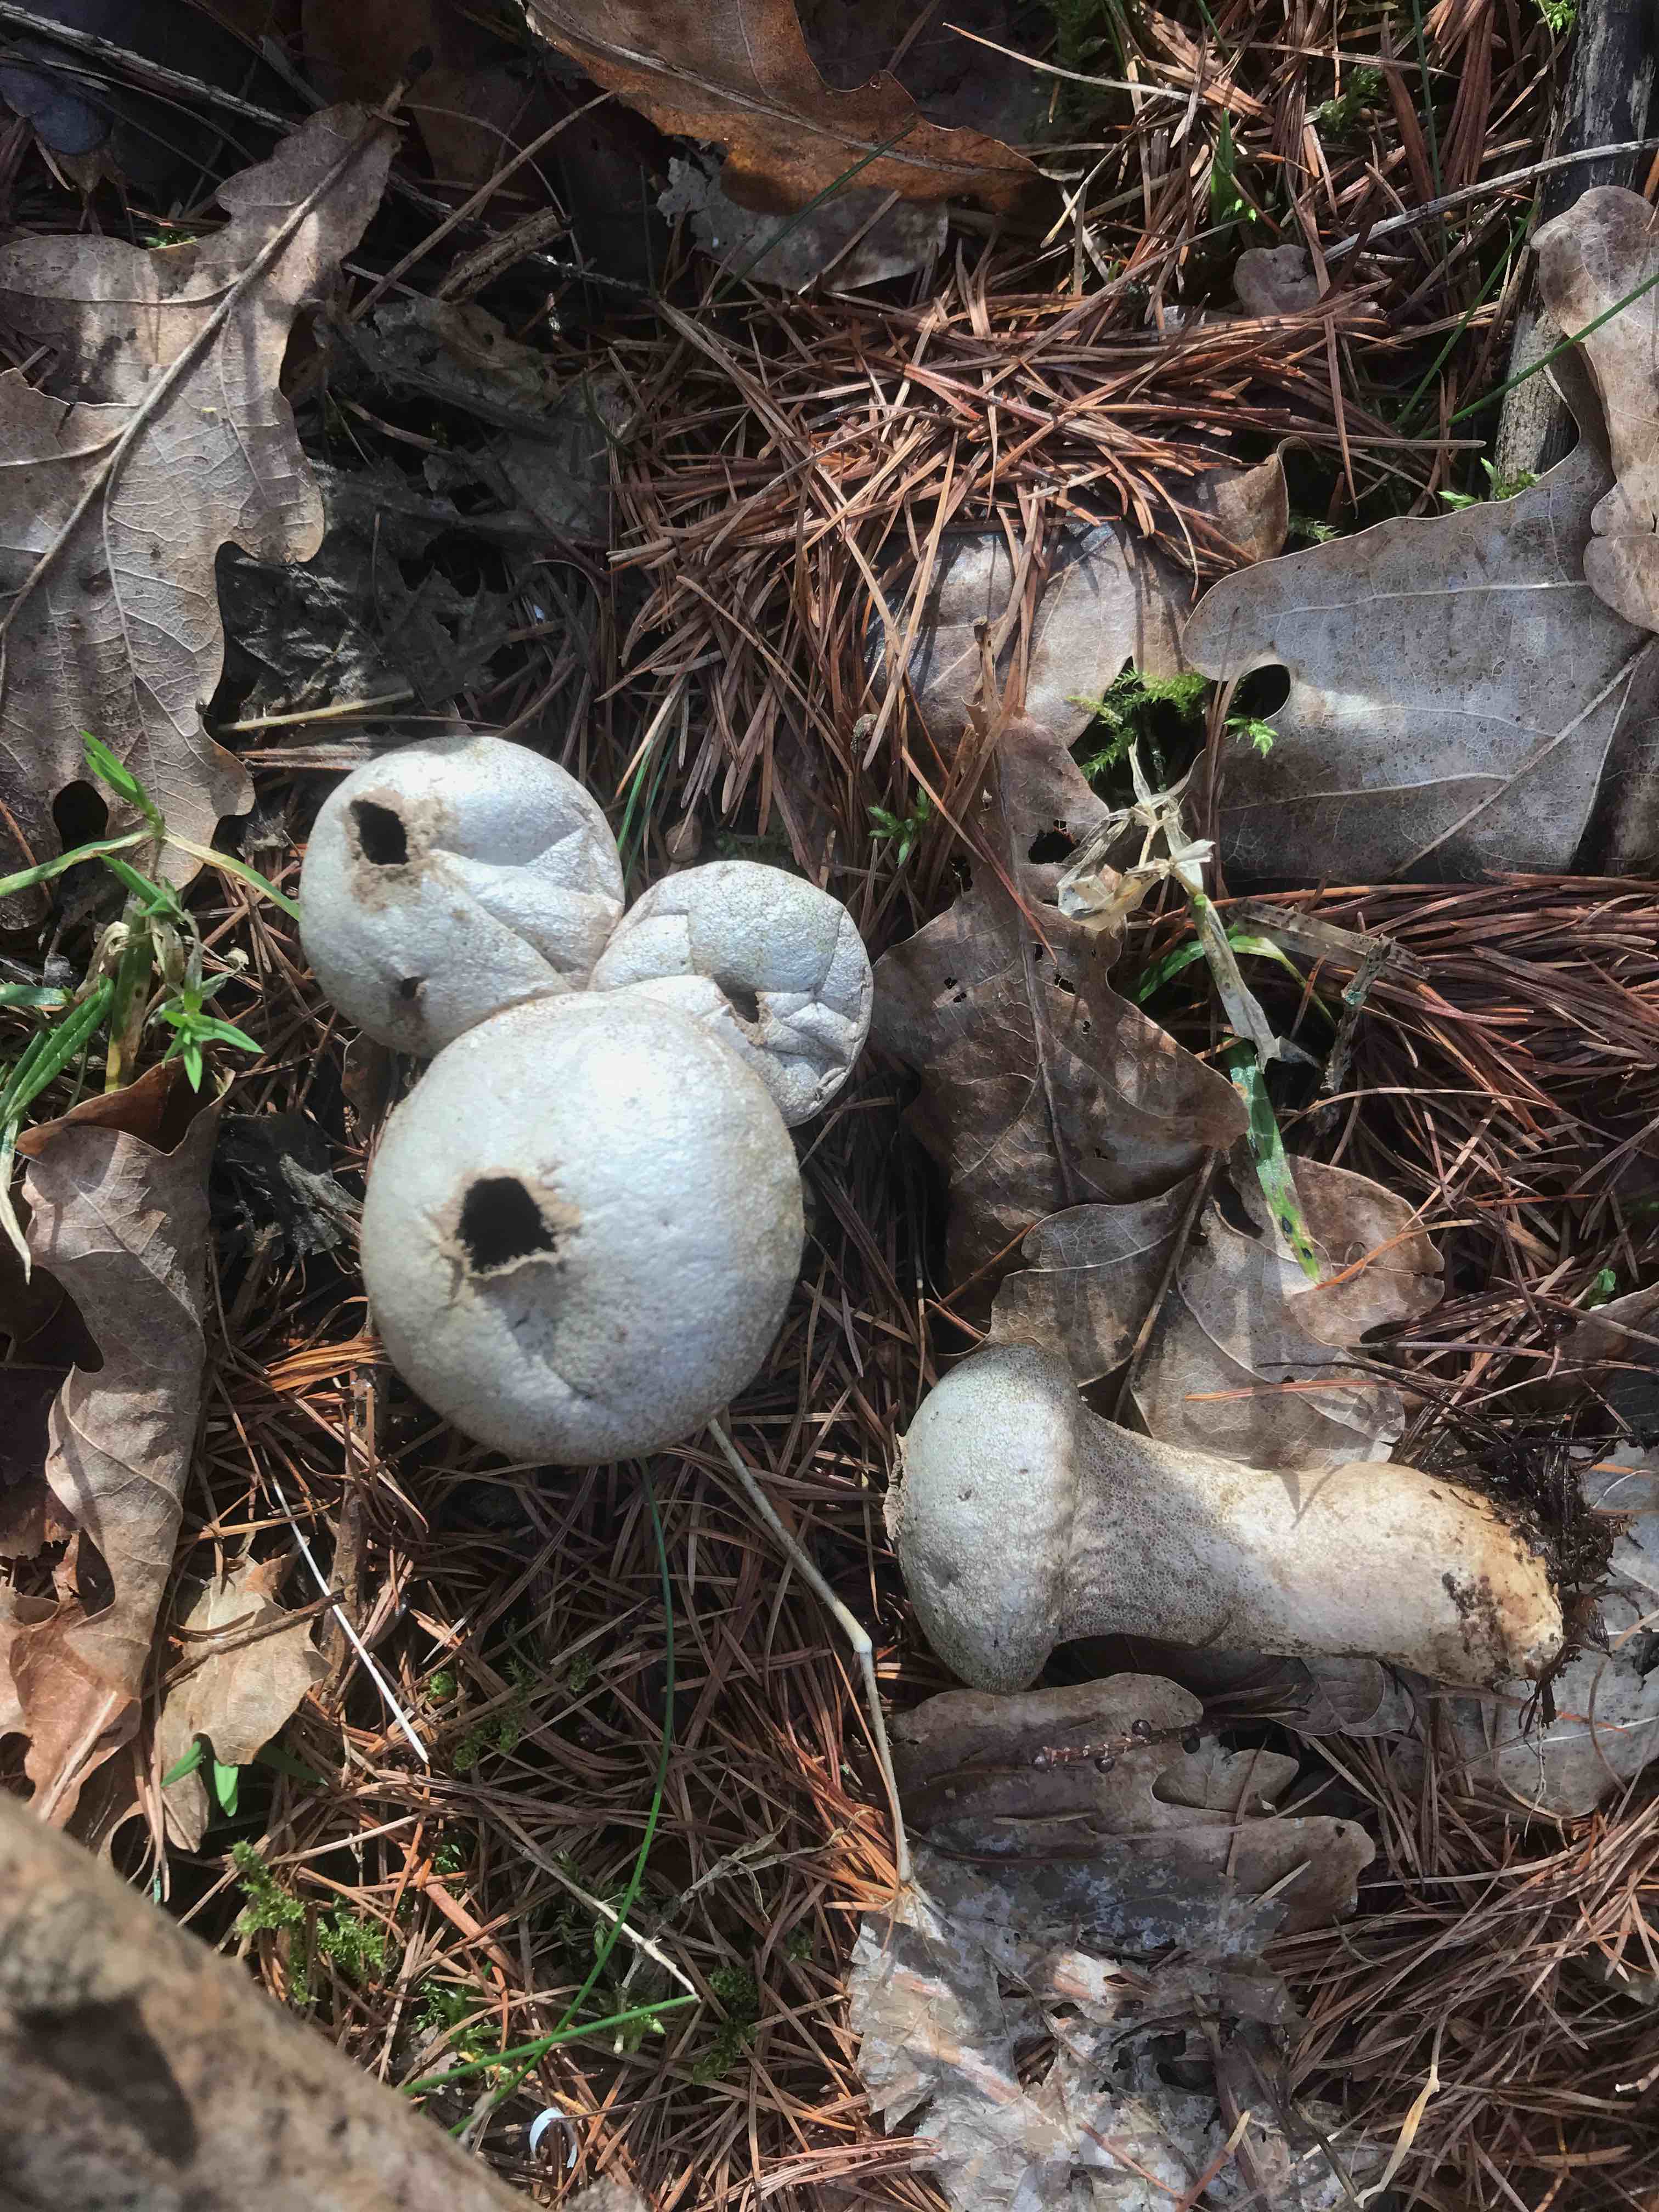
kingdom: Fungi
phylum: Basidiomycota
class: Agaricomycetes
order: Agaricales
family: Lycoperdaceae
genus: Lycoperdon
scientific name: Lycoperdon perlatum
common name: krystal-støvbold
